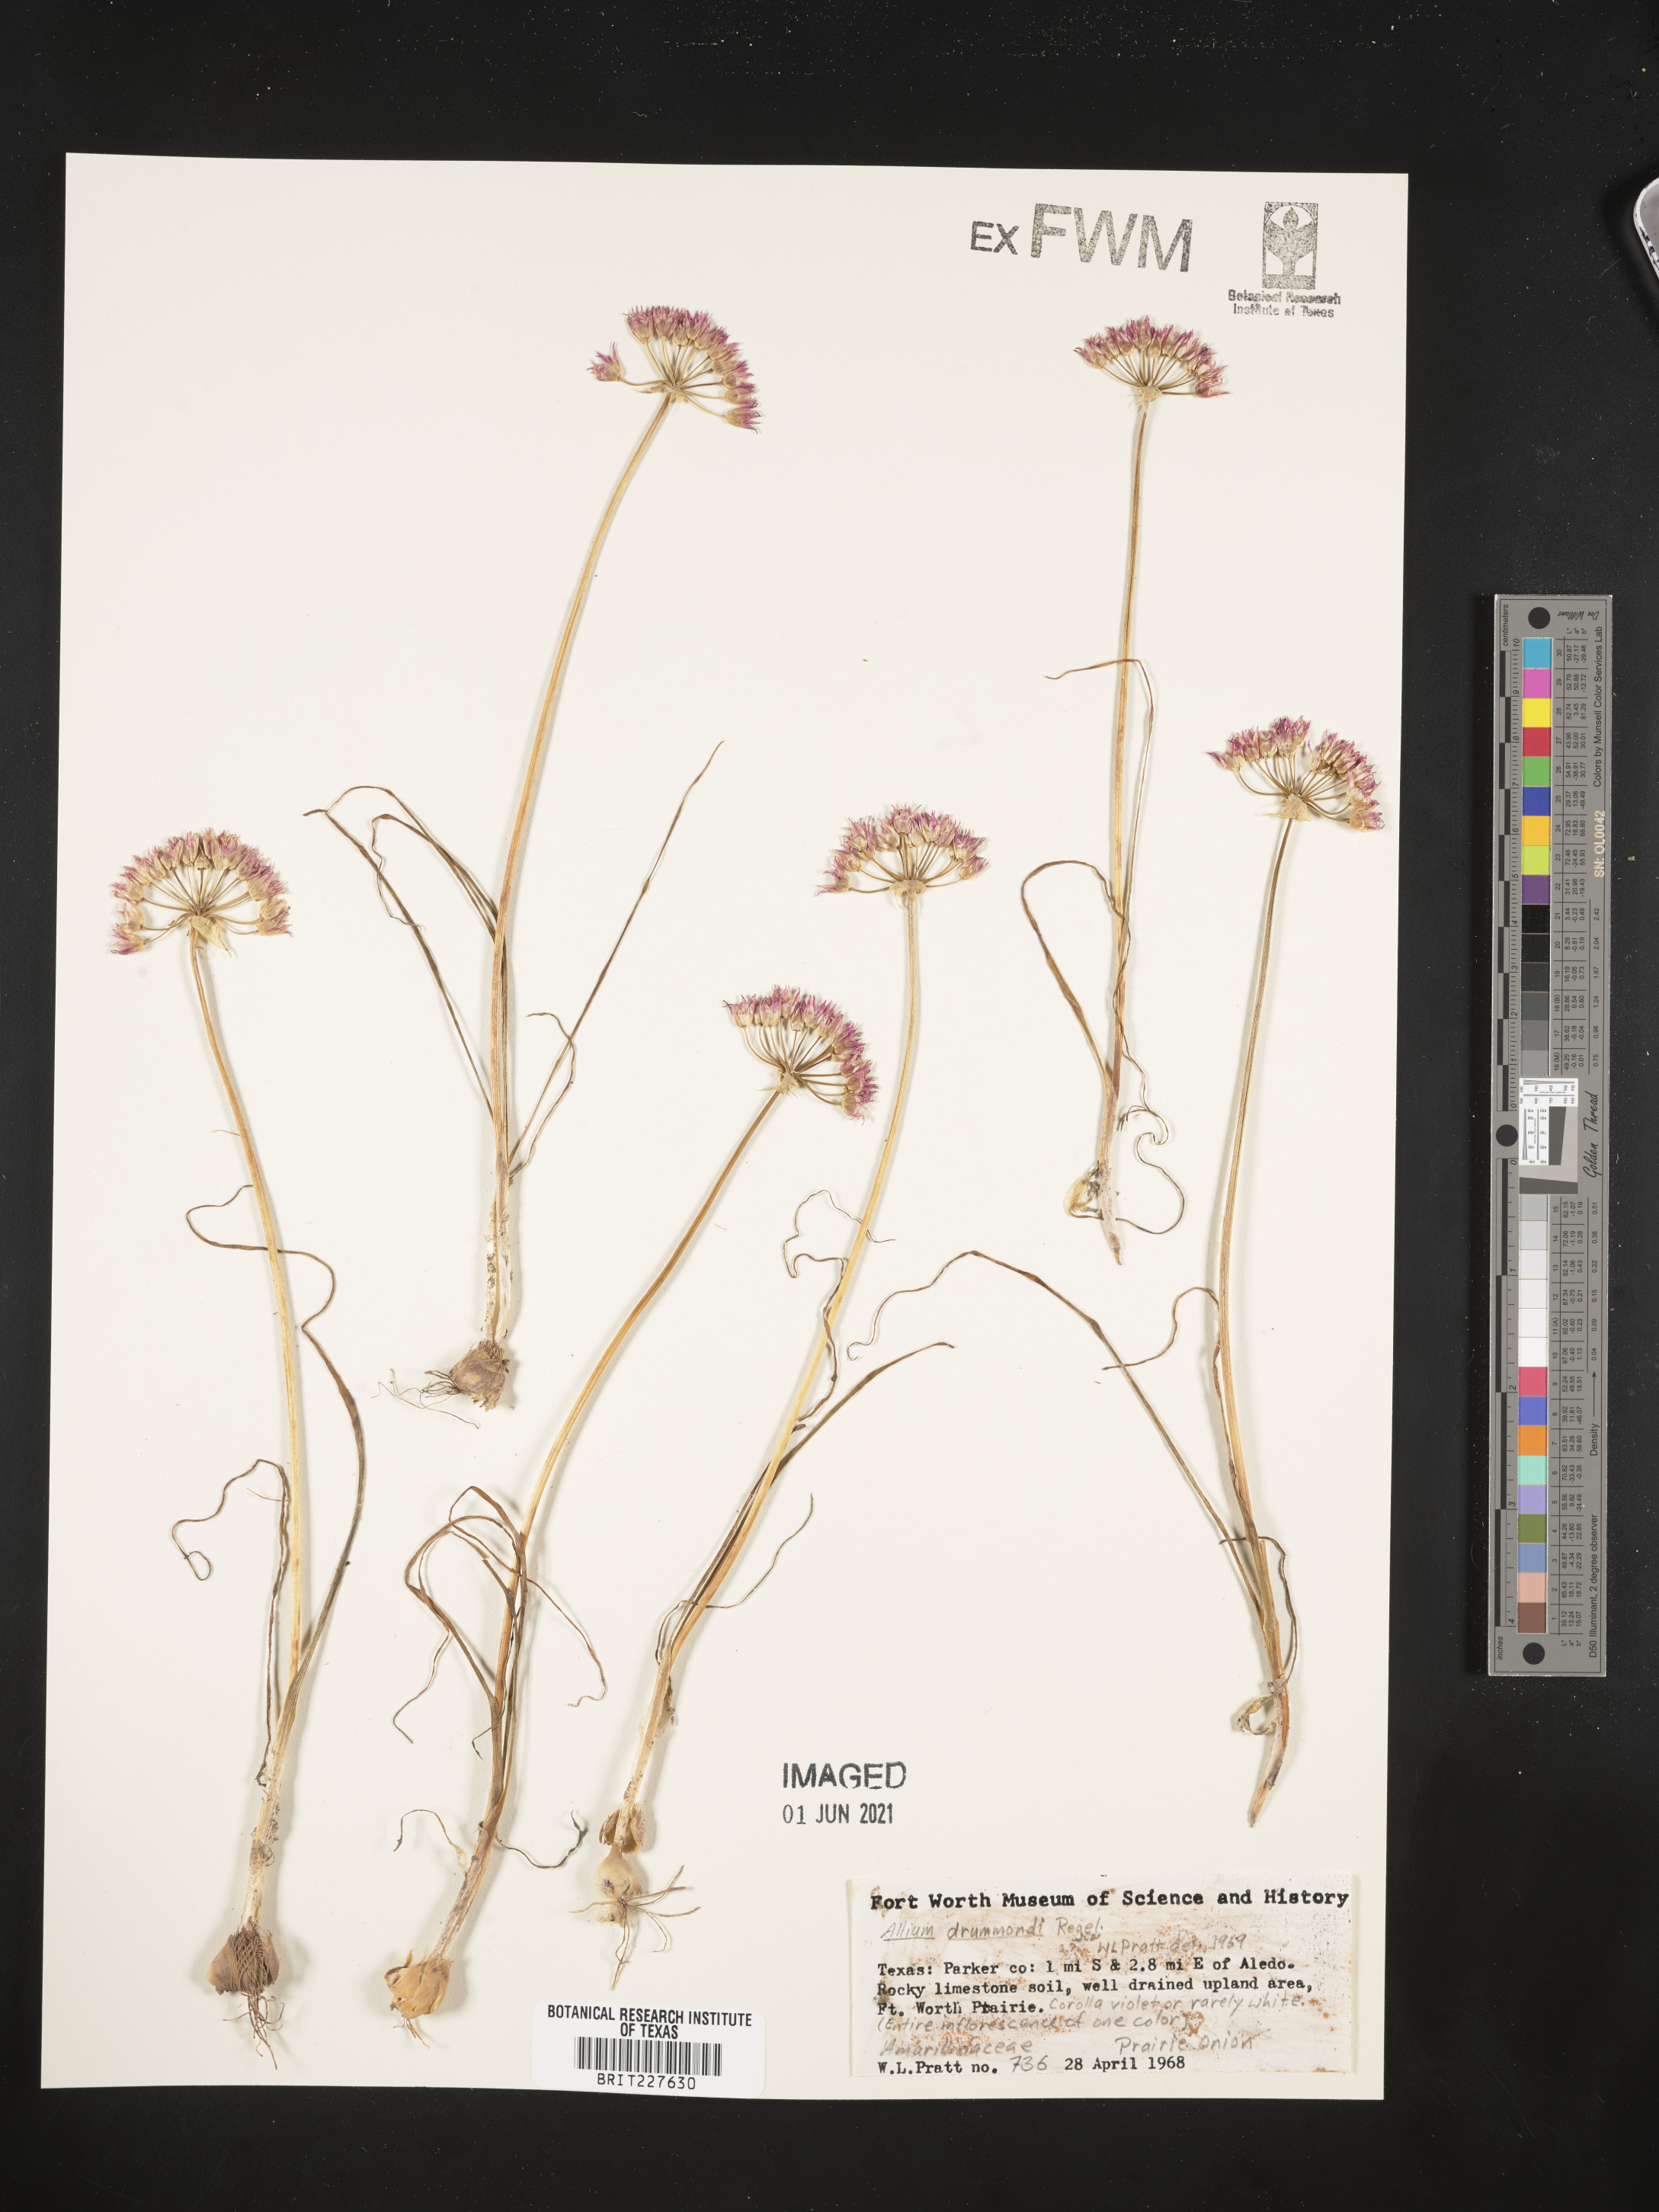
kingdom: Plantae
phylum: Tracheophyta
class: Liliopsida
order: Asparagales
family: Amaryllidaceae
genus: Allium
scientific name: Allium drummondii
